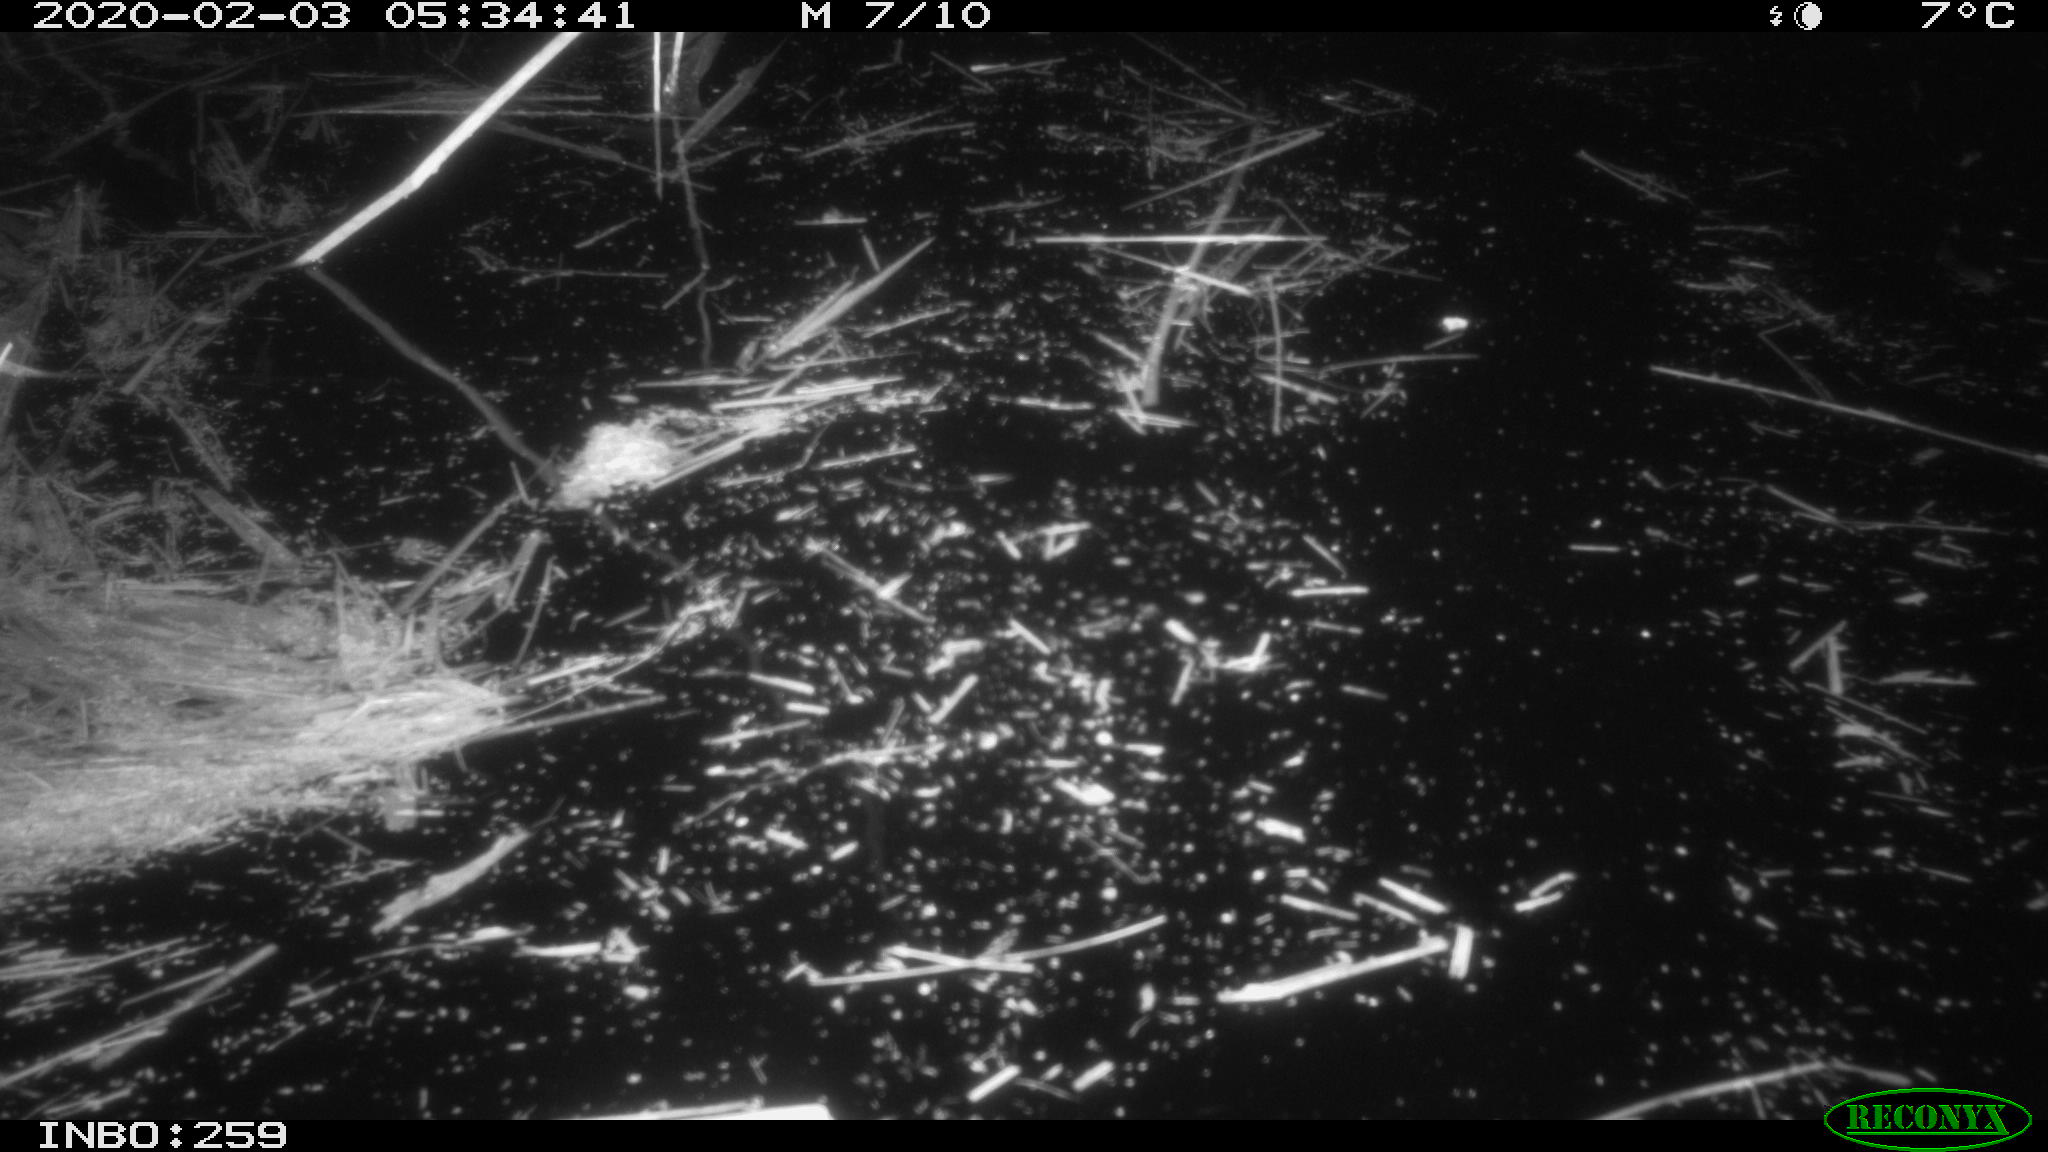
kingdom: Animalia
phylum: Chordata
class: Mammalia
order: Rodentia
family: Cricetidae
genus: Ondatra
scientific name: Ondatra zibethicus
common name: Muskrat
